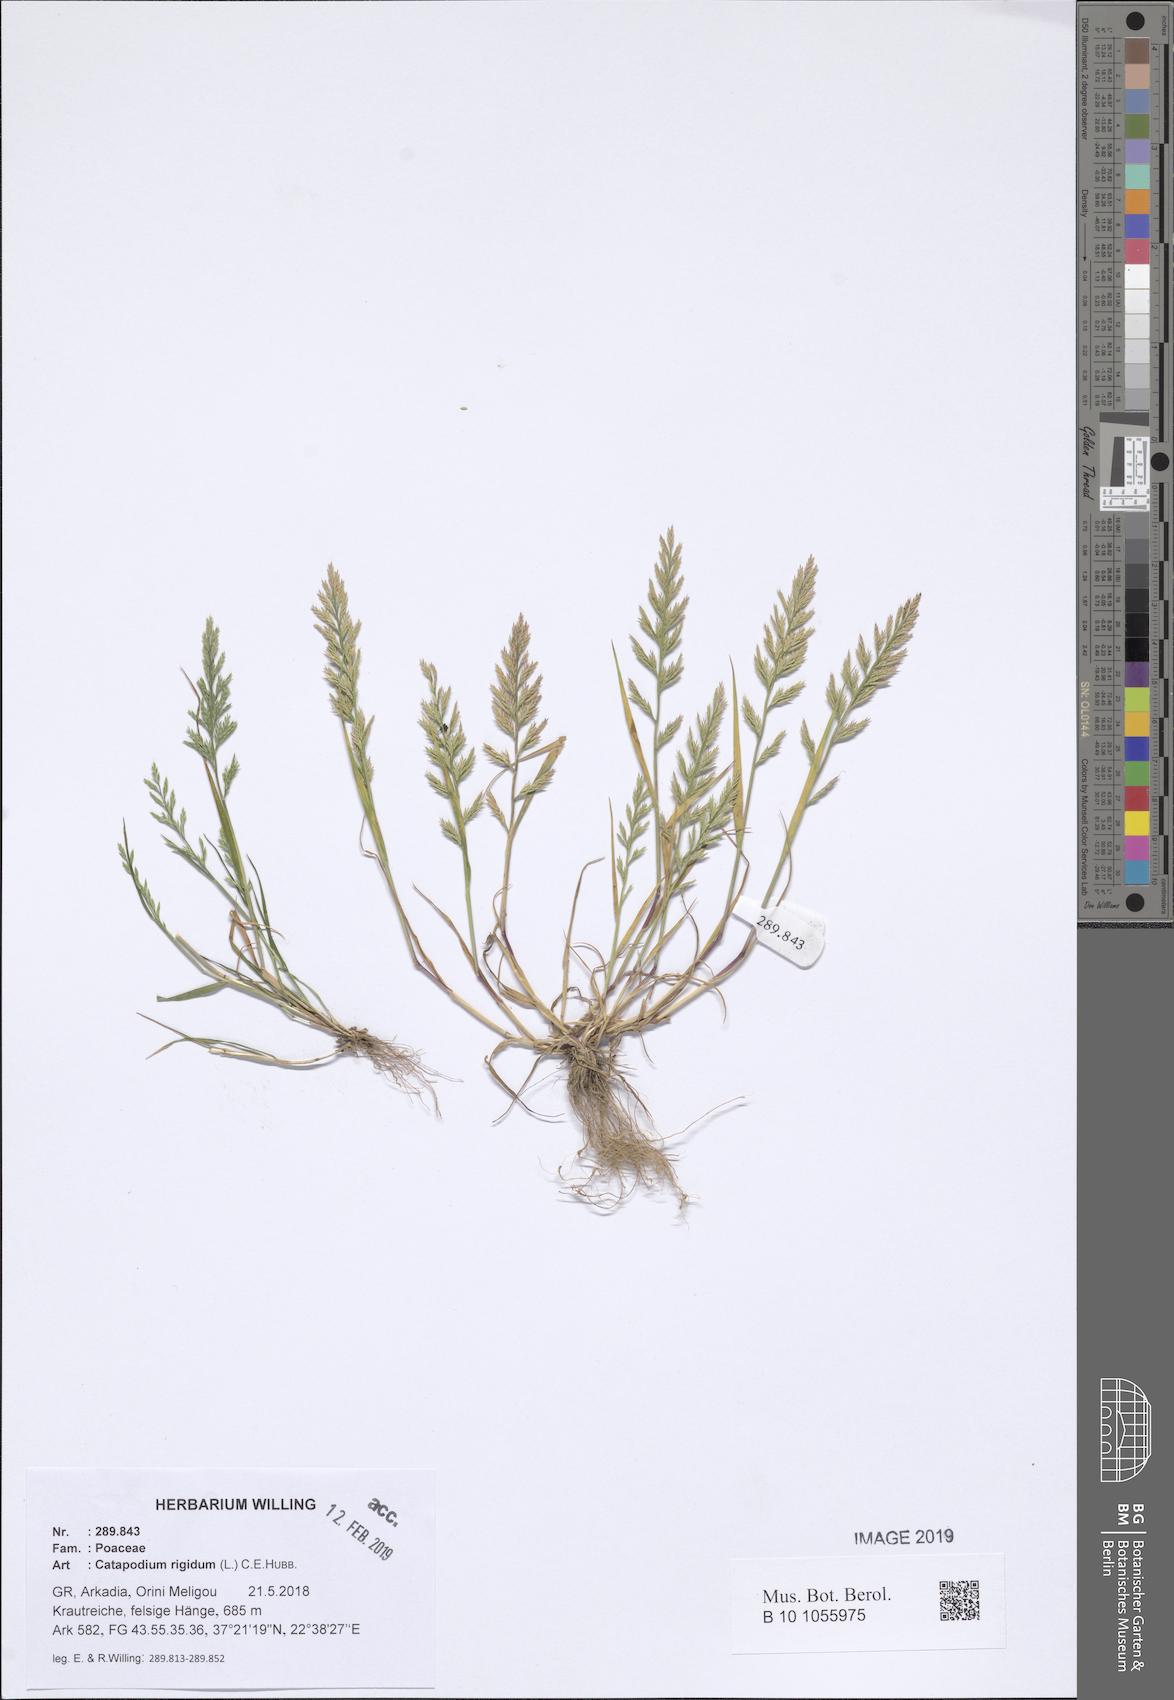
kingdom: Plantae
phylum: Tracheophyta
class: Liliopsida
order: Poales
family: Poaceae
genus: Catapodium
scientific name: Catapodium rigidum
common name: Fern-grass
